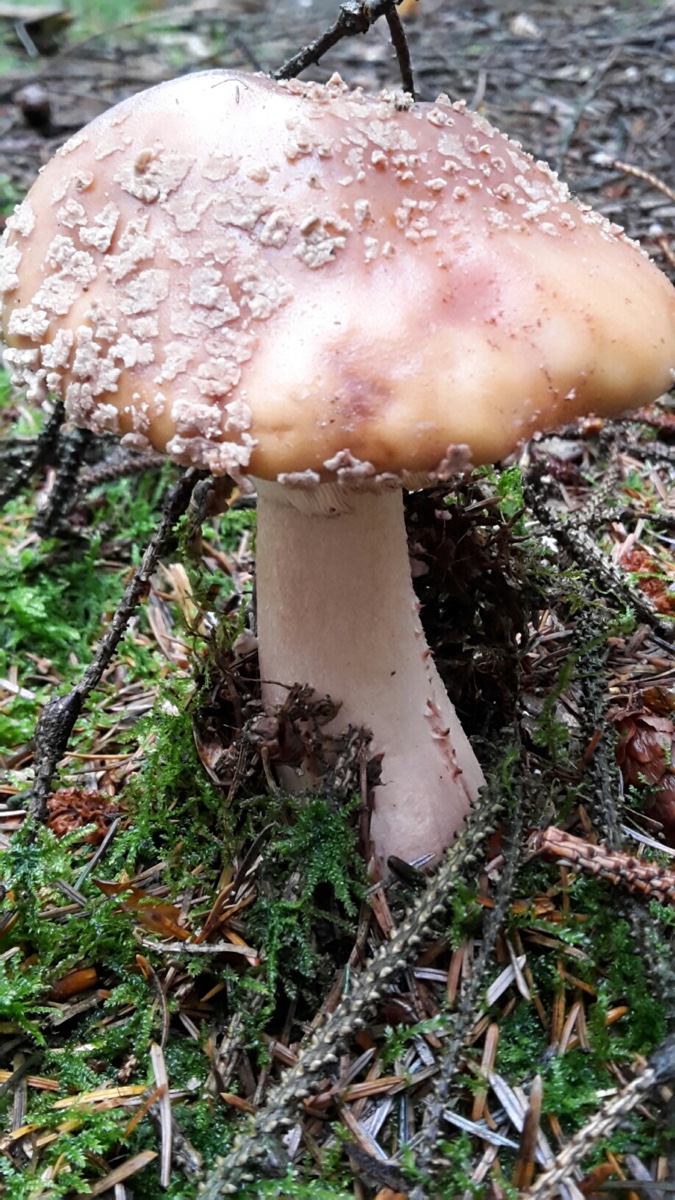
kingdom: Fungi
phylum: Basidiomycota
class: Agaricomycetes
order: Agaricales
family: Amanitaceae
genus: Amanita
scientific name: Amanita rubescens
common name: rødmende fluesvamp
